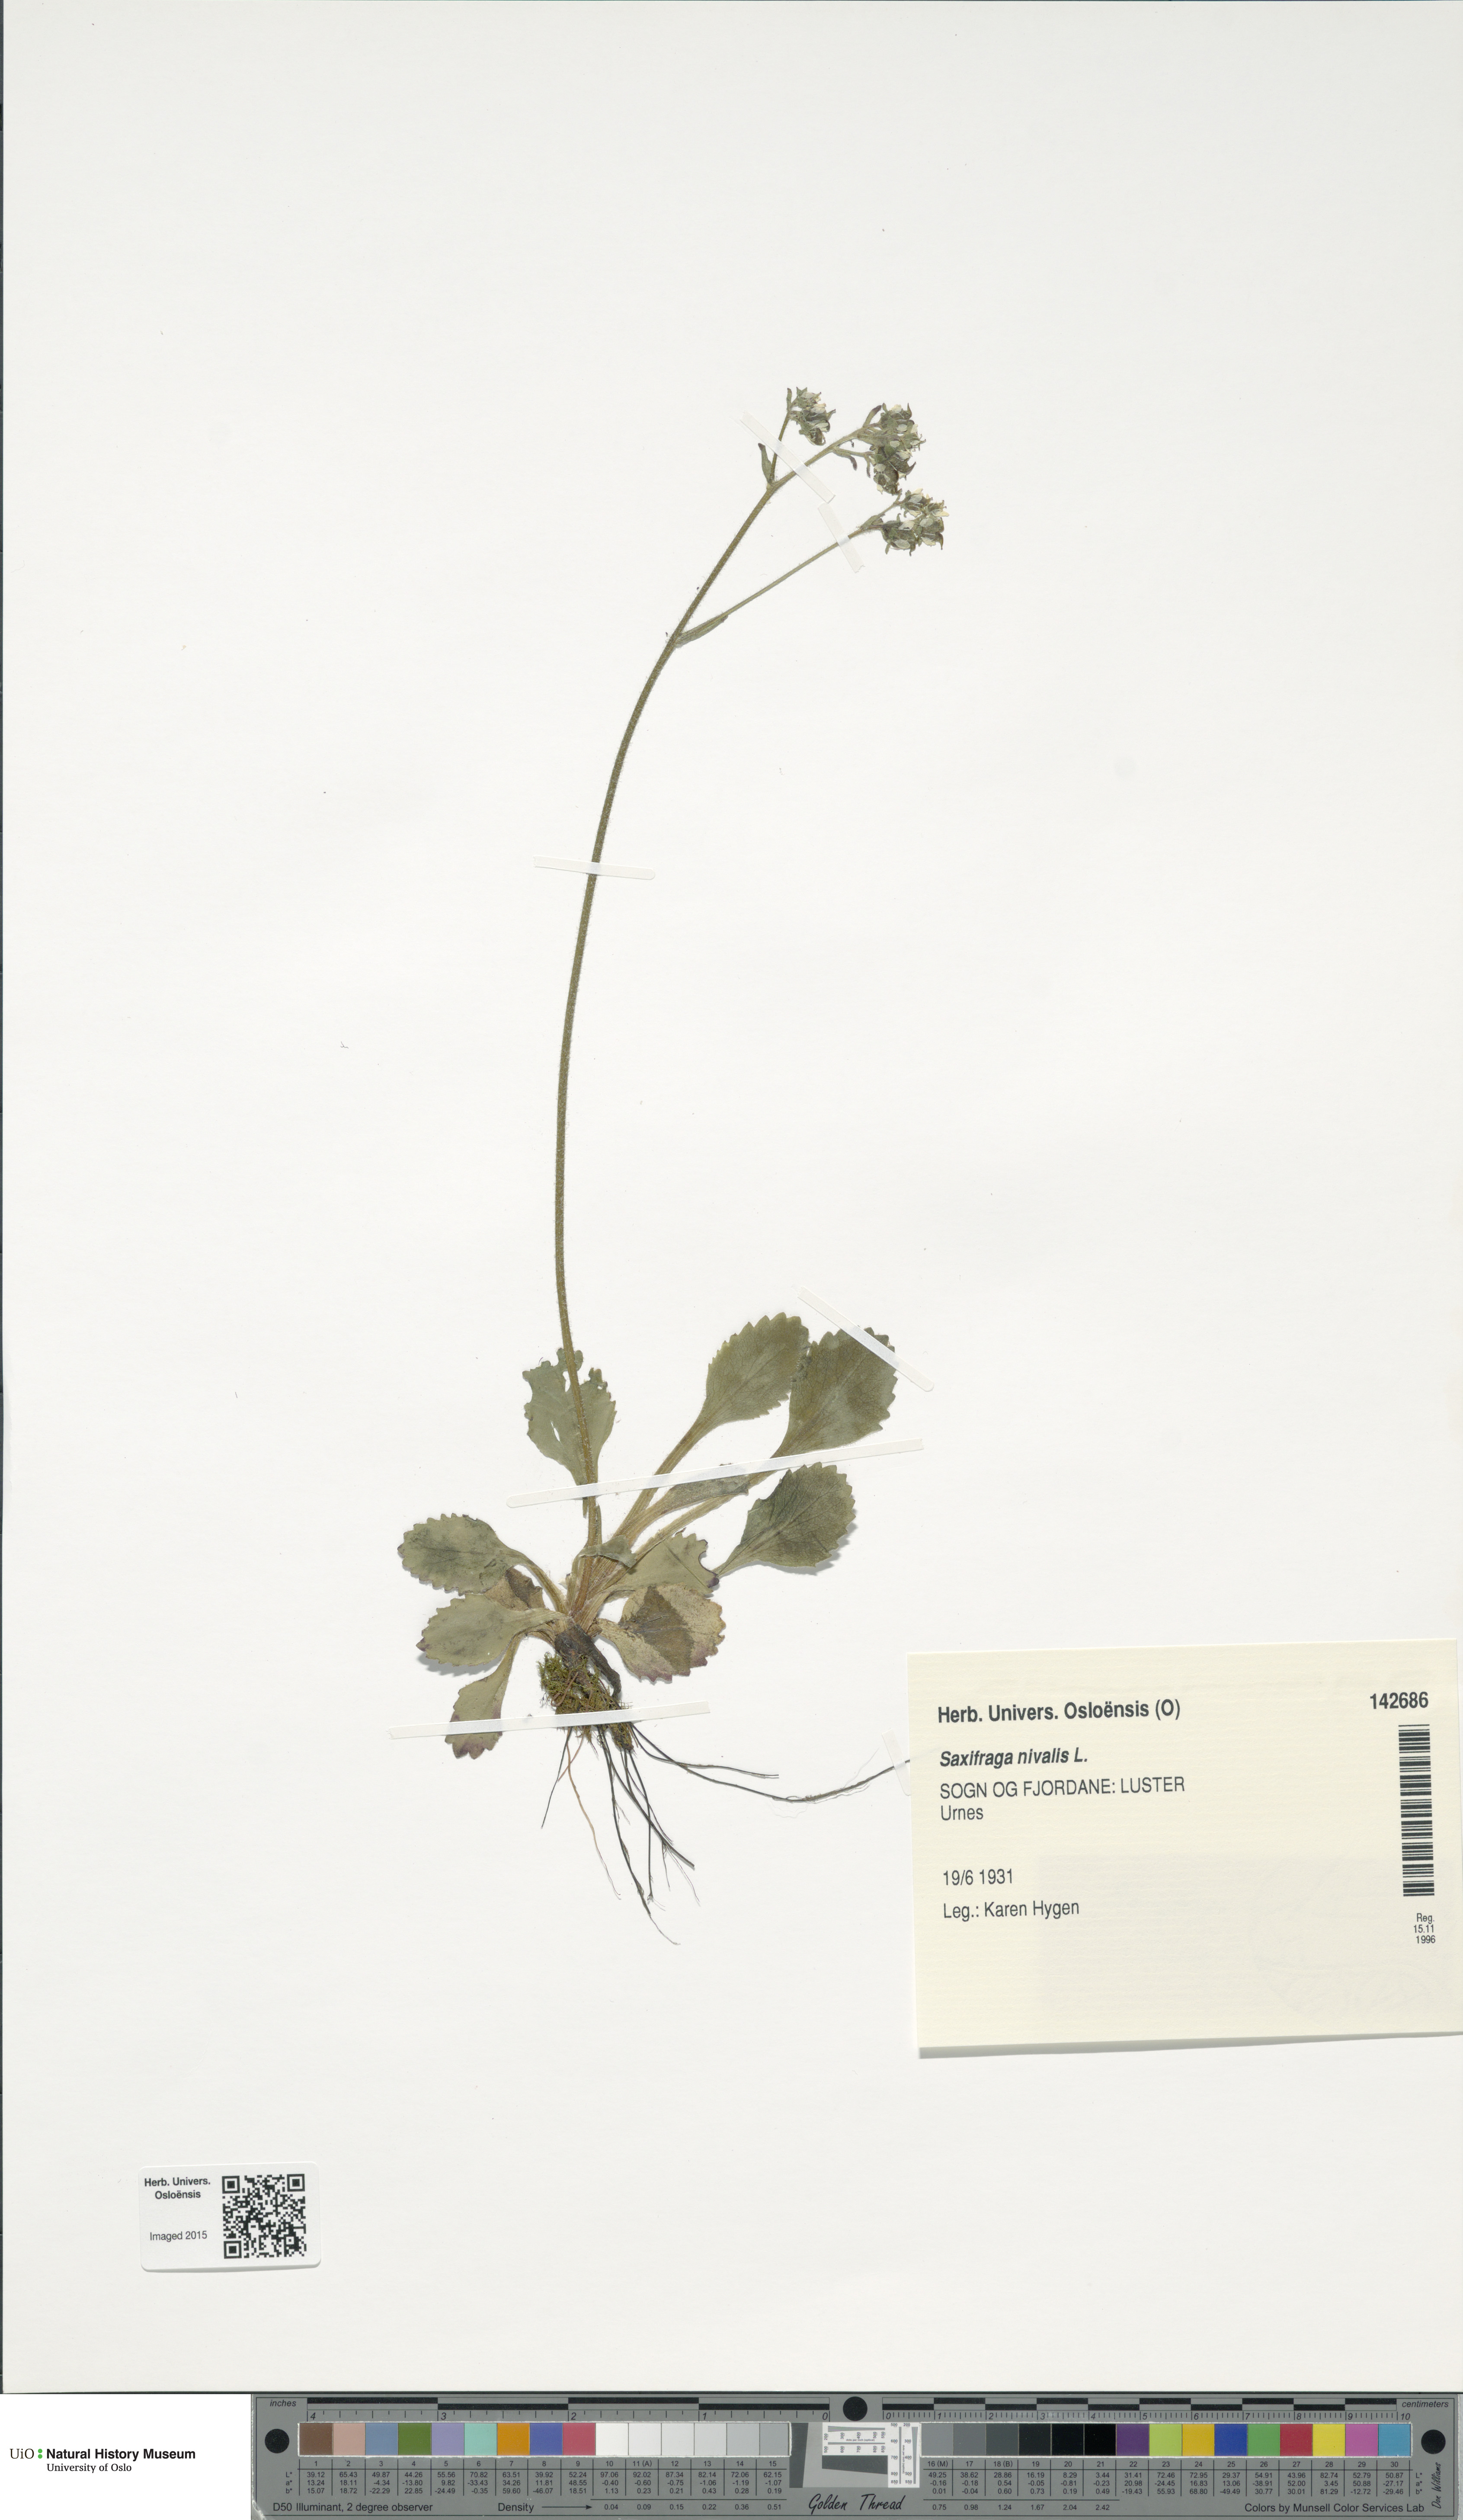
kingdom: Plantae
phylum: Tracheophyta
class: Magnoliopsida
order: Saxifragales
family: Saxifragaceae
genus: Micranthes
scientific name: Micranthes nivalis
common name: Alpine saxifrage
